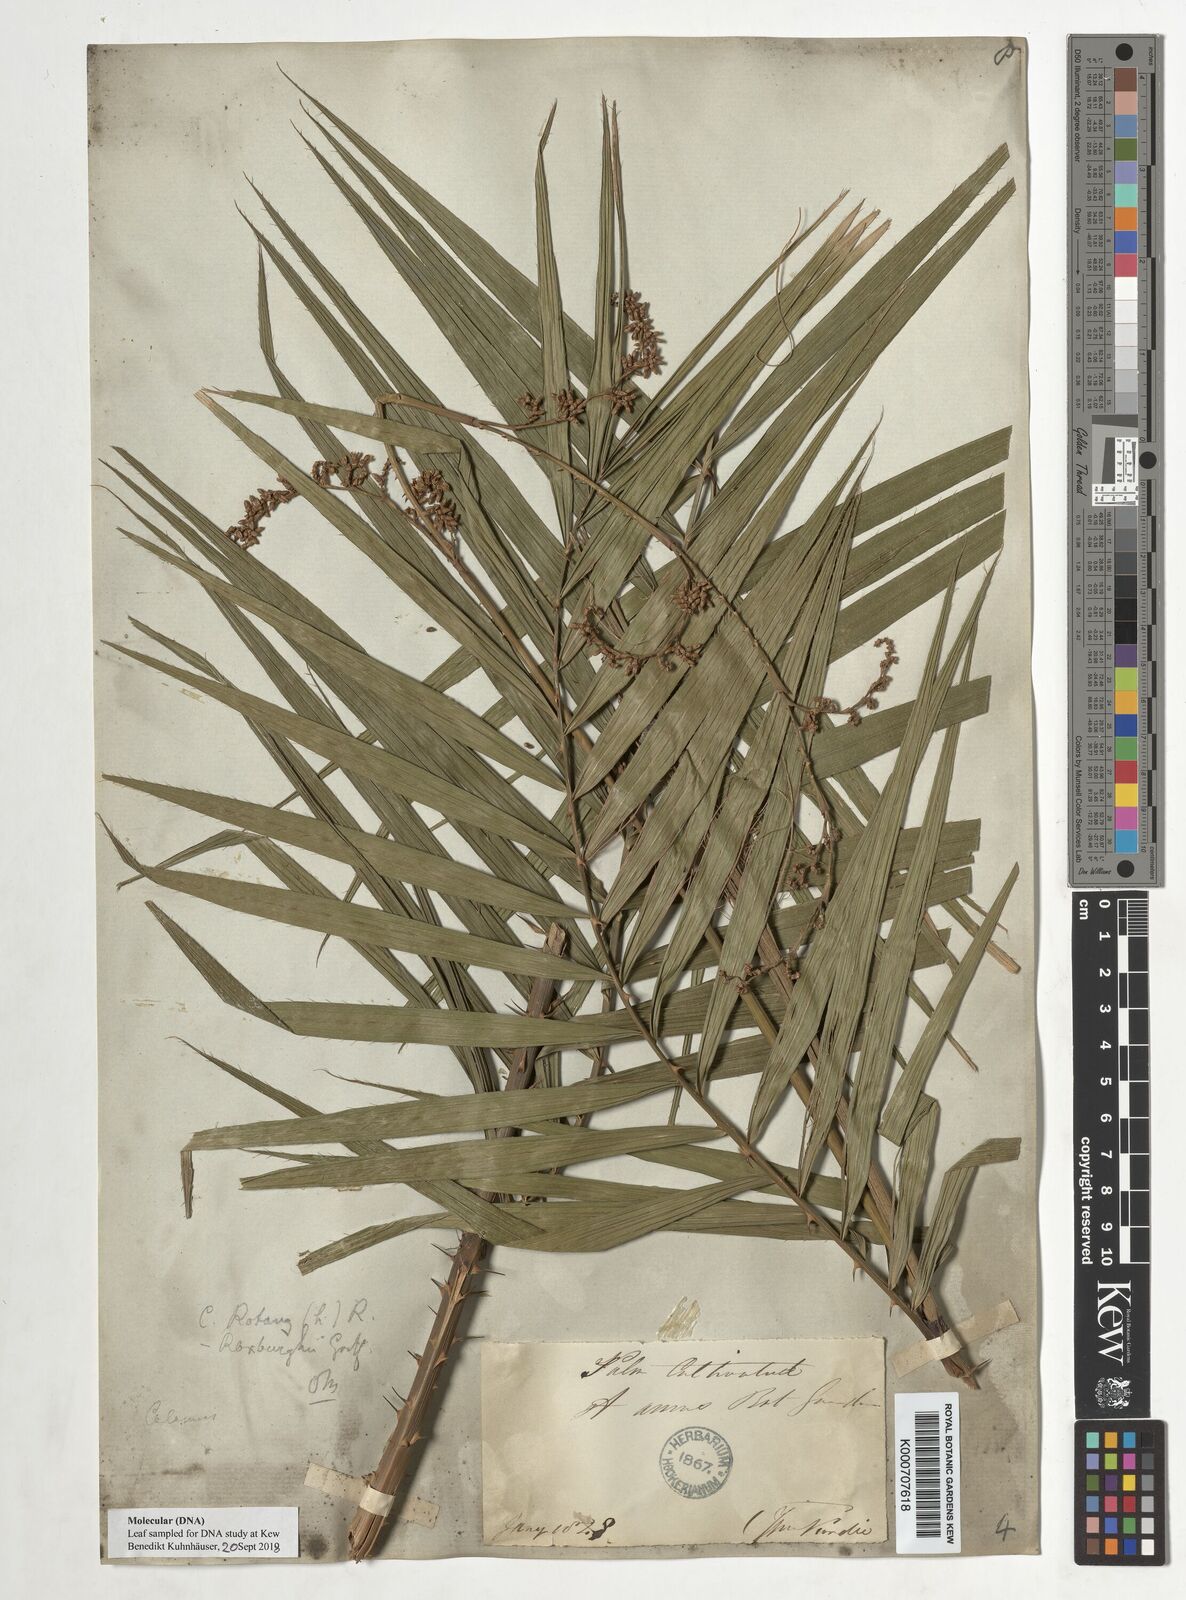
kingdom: Plantae
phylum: Tracheophyta
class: Liliopsida
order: Arecales
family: Arecaceae
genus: Calamus
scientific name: Calamus rotang
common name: Rattan cane
